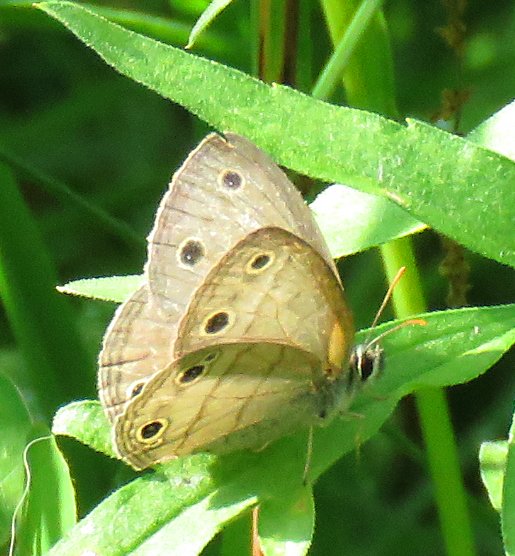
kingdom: Animalia
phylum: Arthropoda
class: Insecta
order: Lepidoptera
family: Nymphalidae
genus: Euptychia
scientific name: Euptychia cymela
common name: Little Wood Satyr
